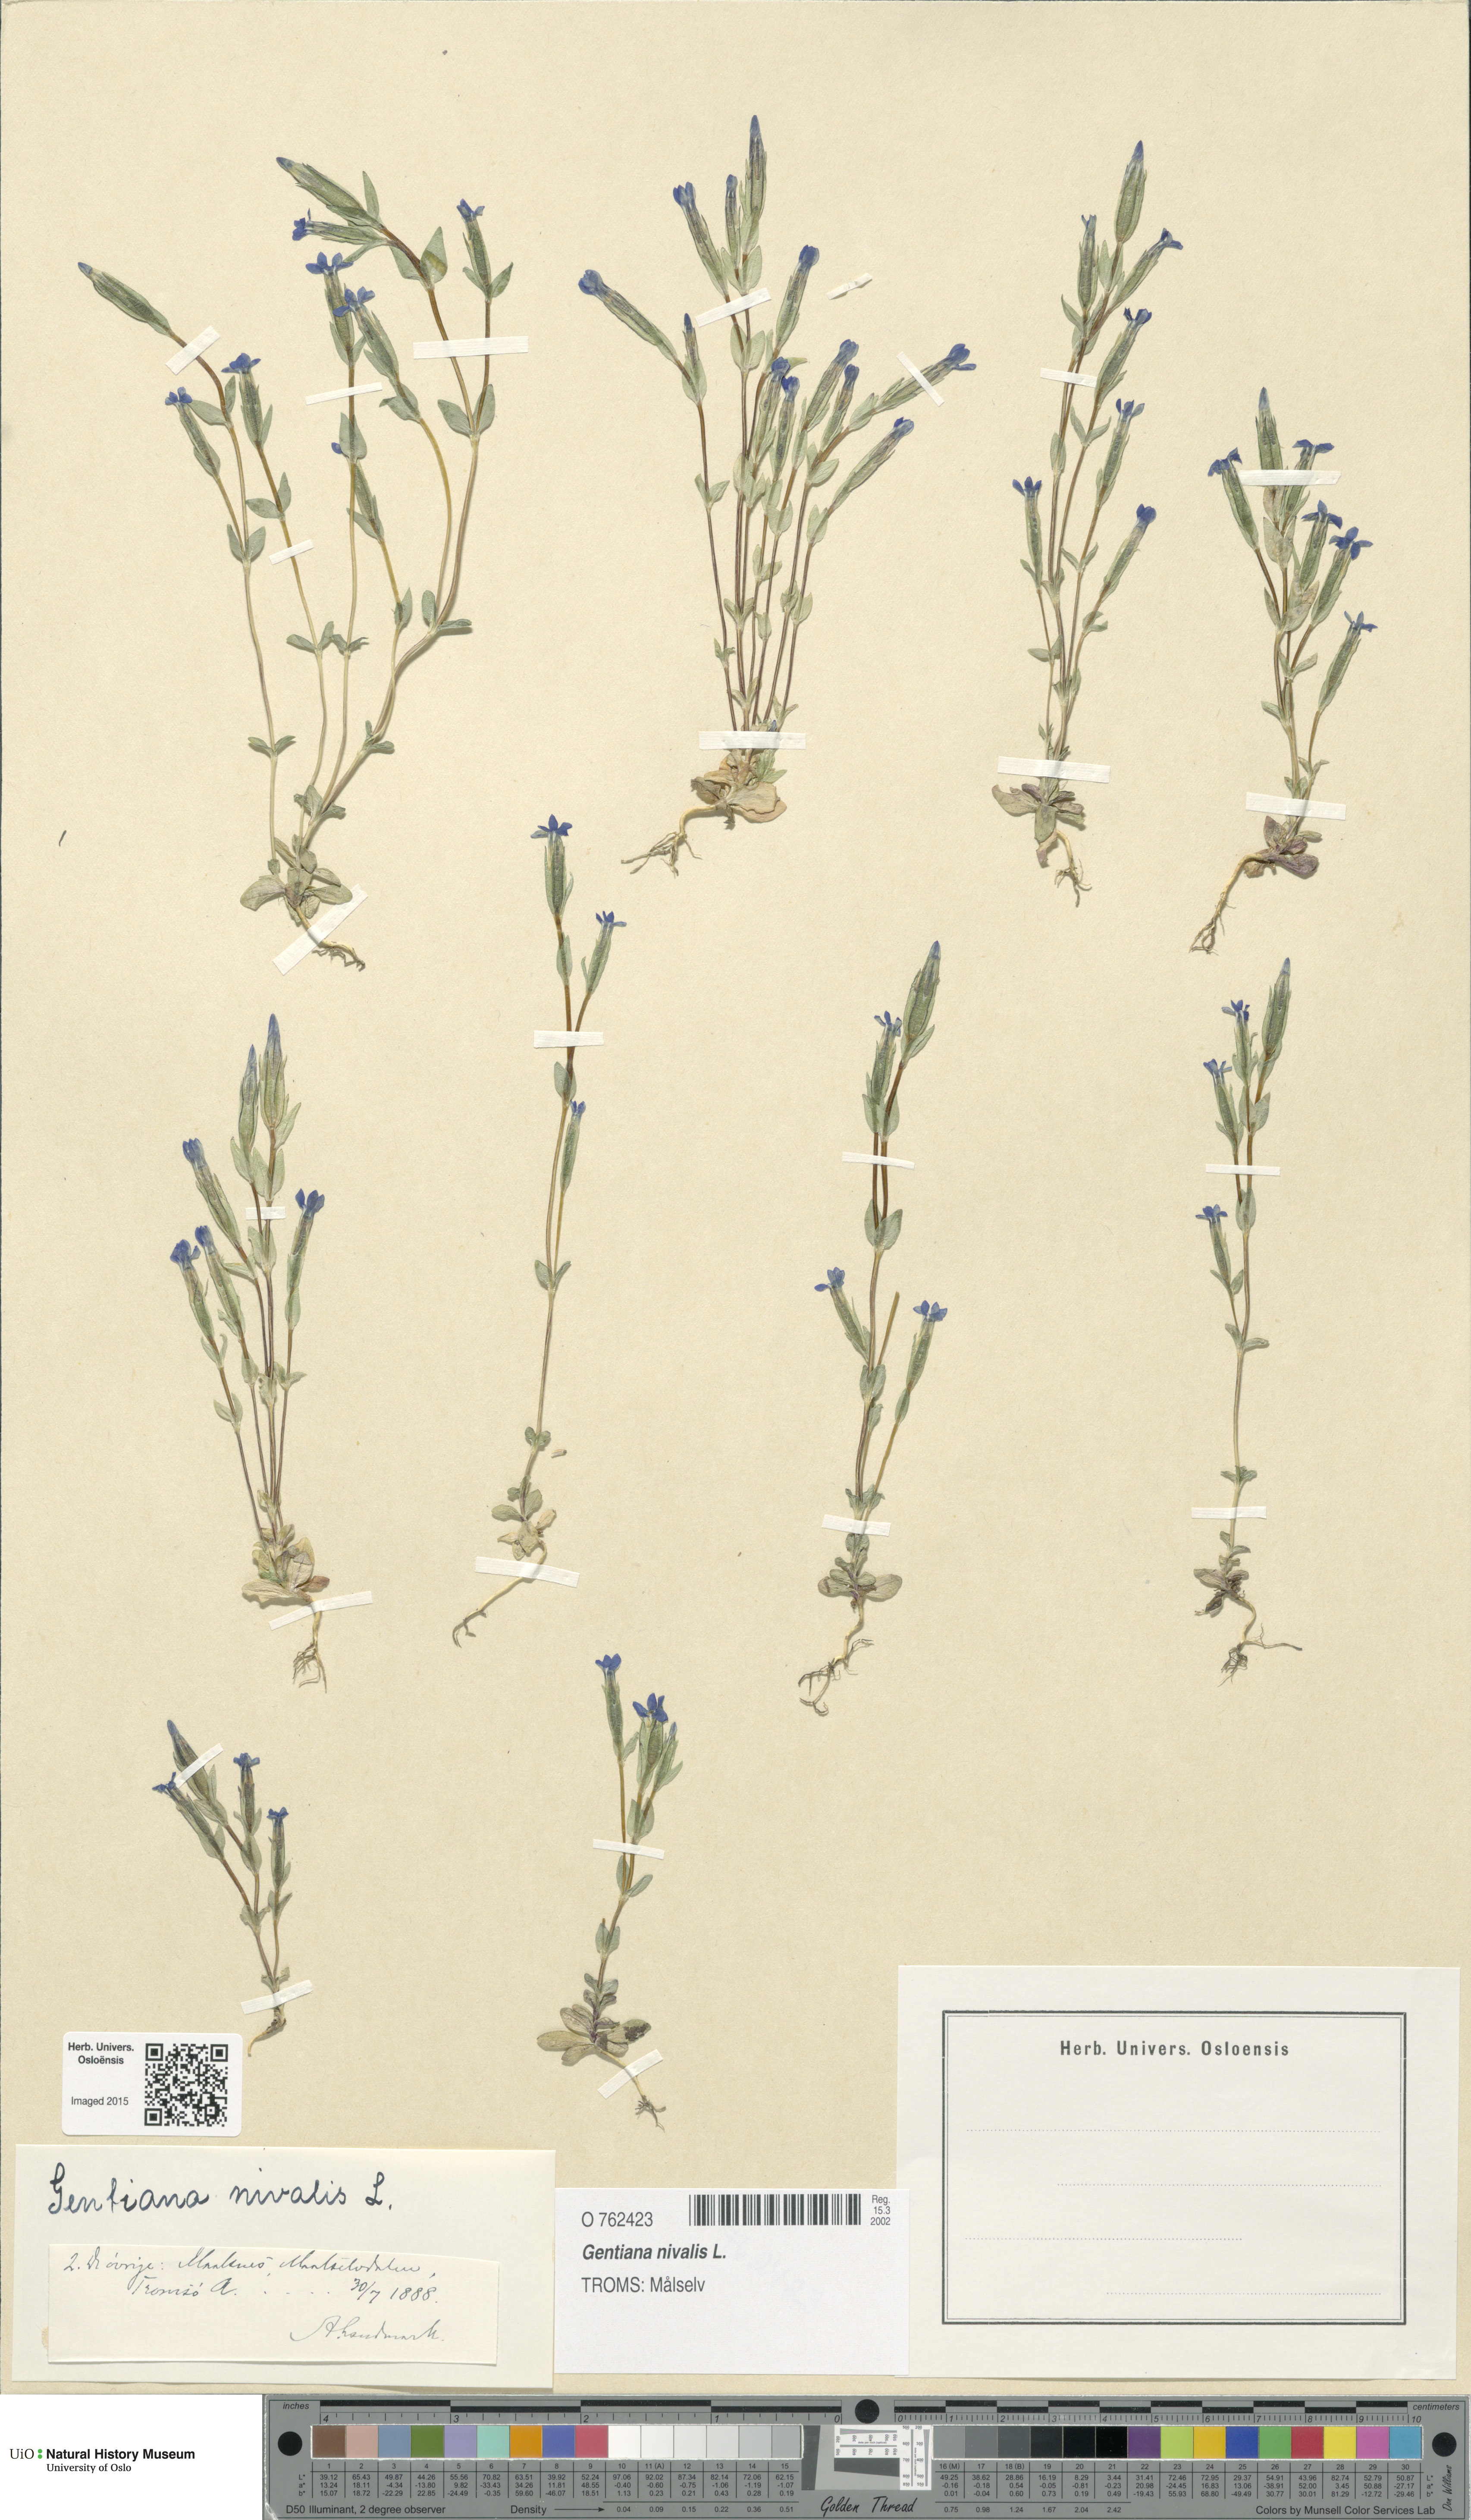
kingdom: Plantae
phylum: Tracheophyta
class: Magnoliopsida
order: Gentianales
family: Gentianaceae
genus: Gentiana
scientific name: Gentiana nivalis
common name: Alpine gentian
